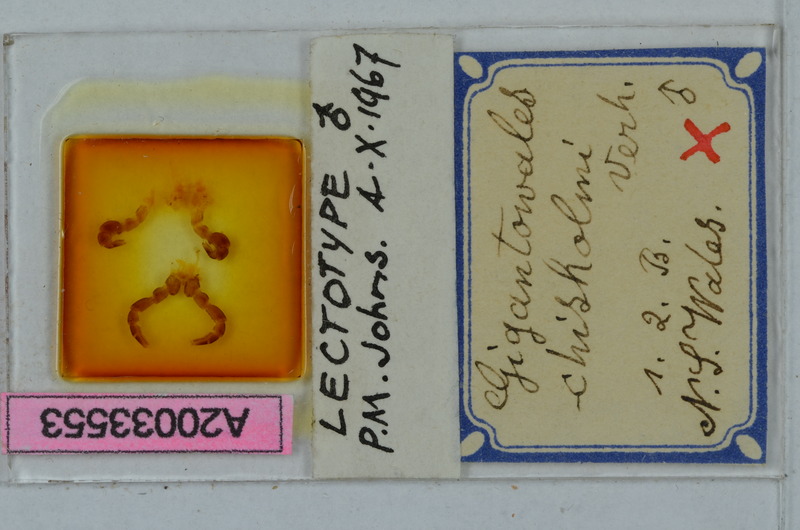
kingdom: Animalia
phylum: Arthropoda
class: Diplopoda
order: Polydesmida
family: Paradoxosomatidae
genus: Gigantowales
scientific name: Gigantowales chisholmi
